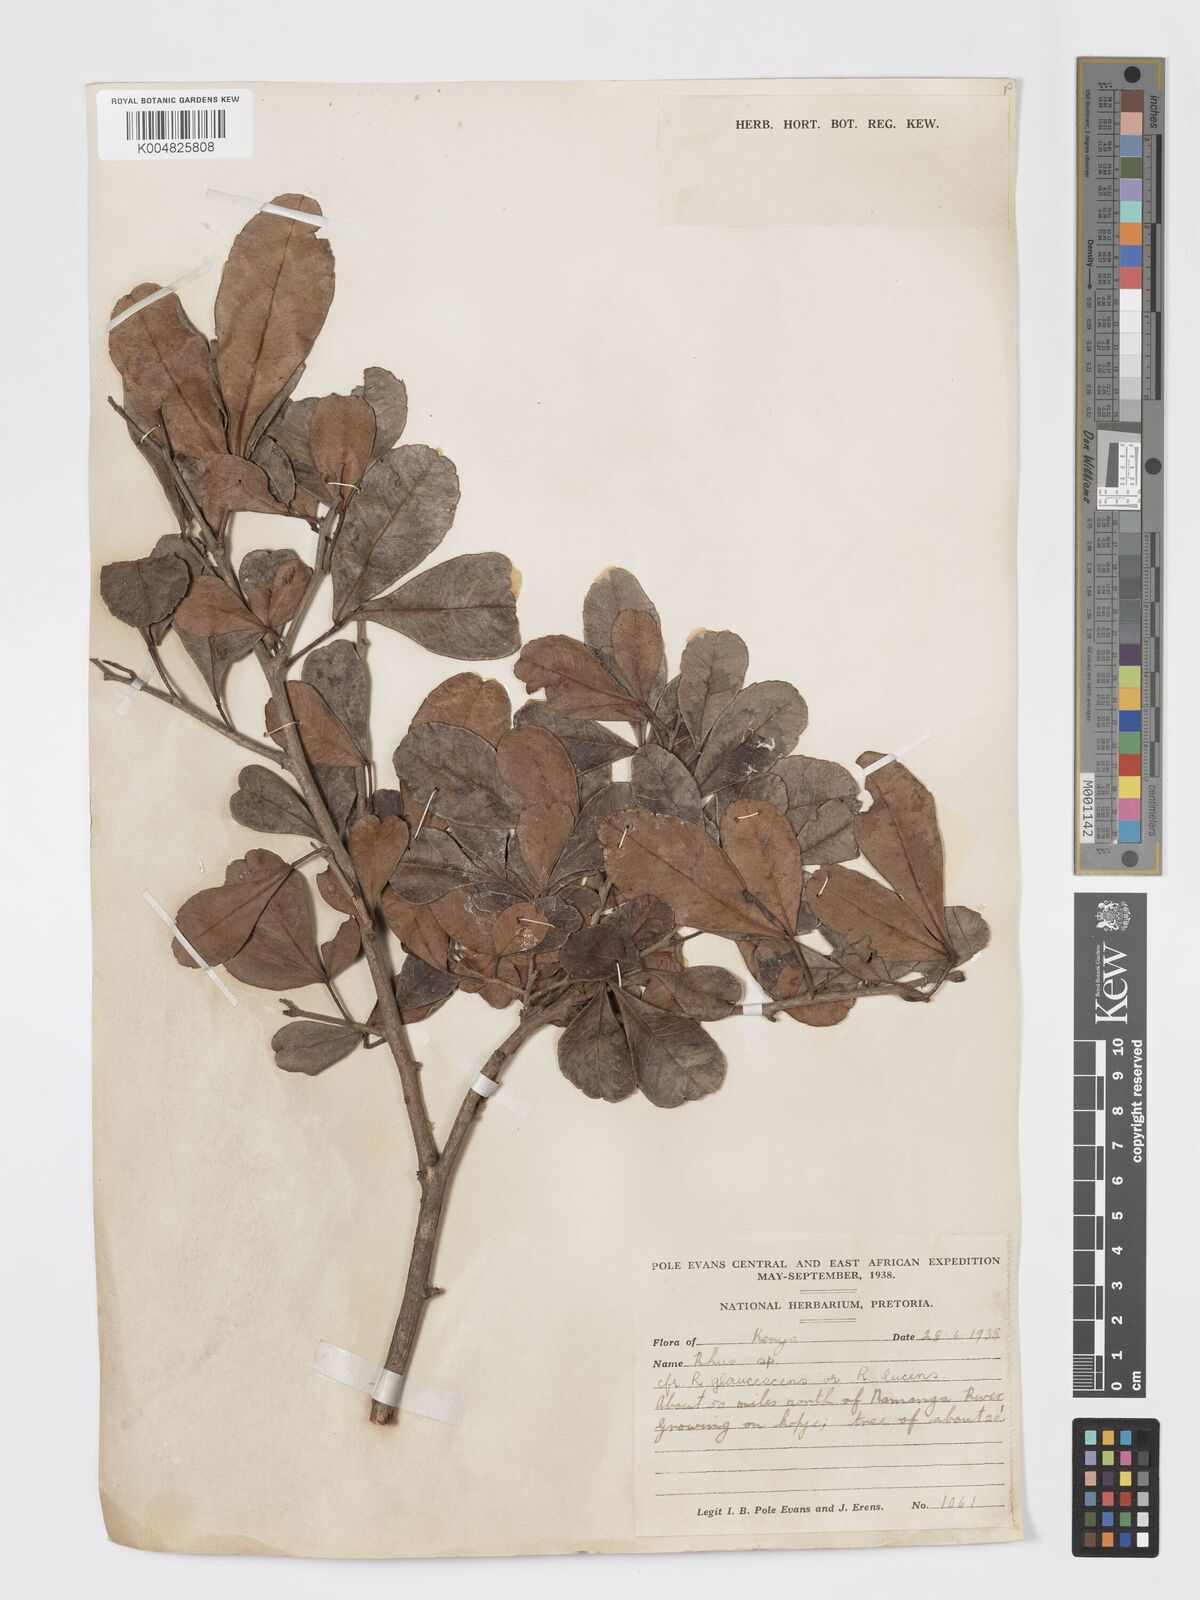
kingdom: Plantae
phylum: Tracheophyta
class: Magnoliopsida
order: Sapindales
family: Anacardiaceae
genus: Searsia
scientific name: Searsia natalensis
